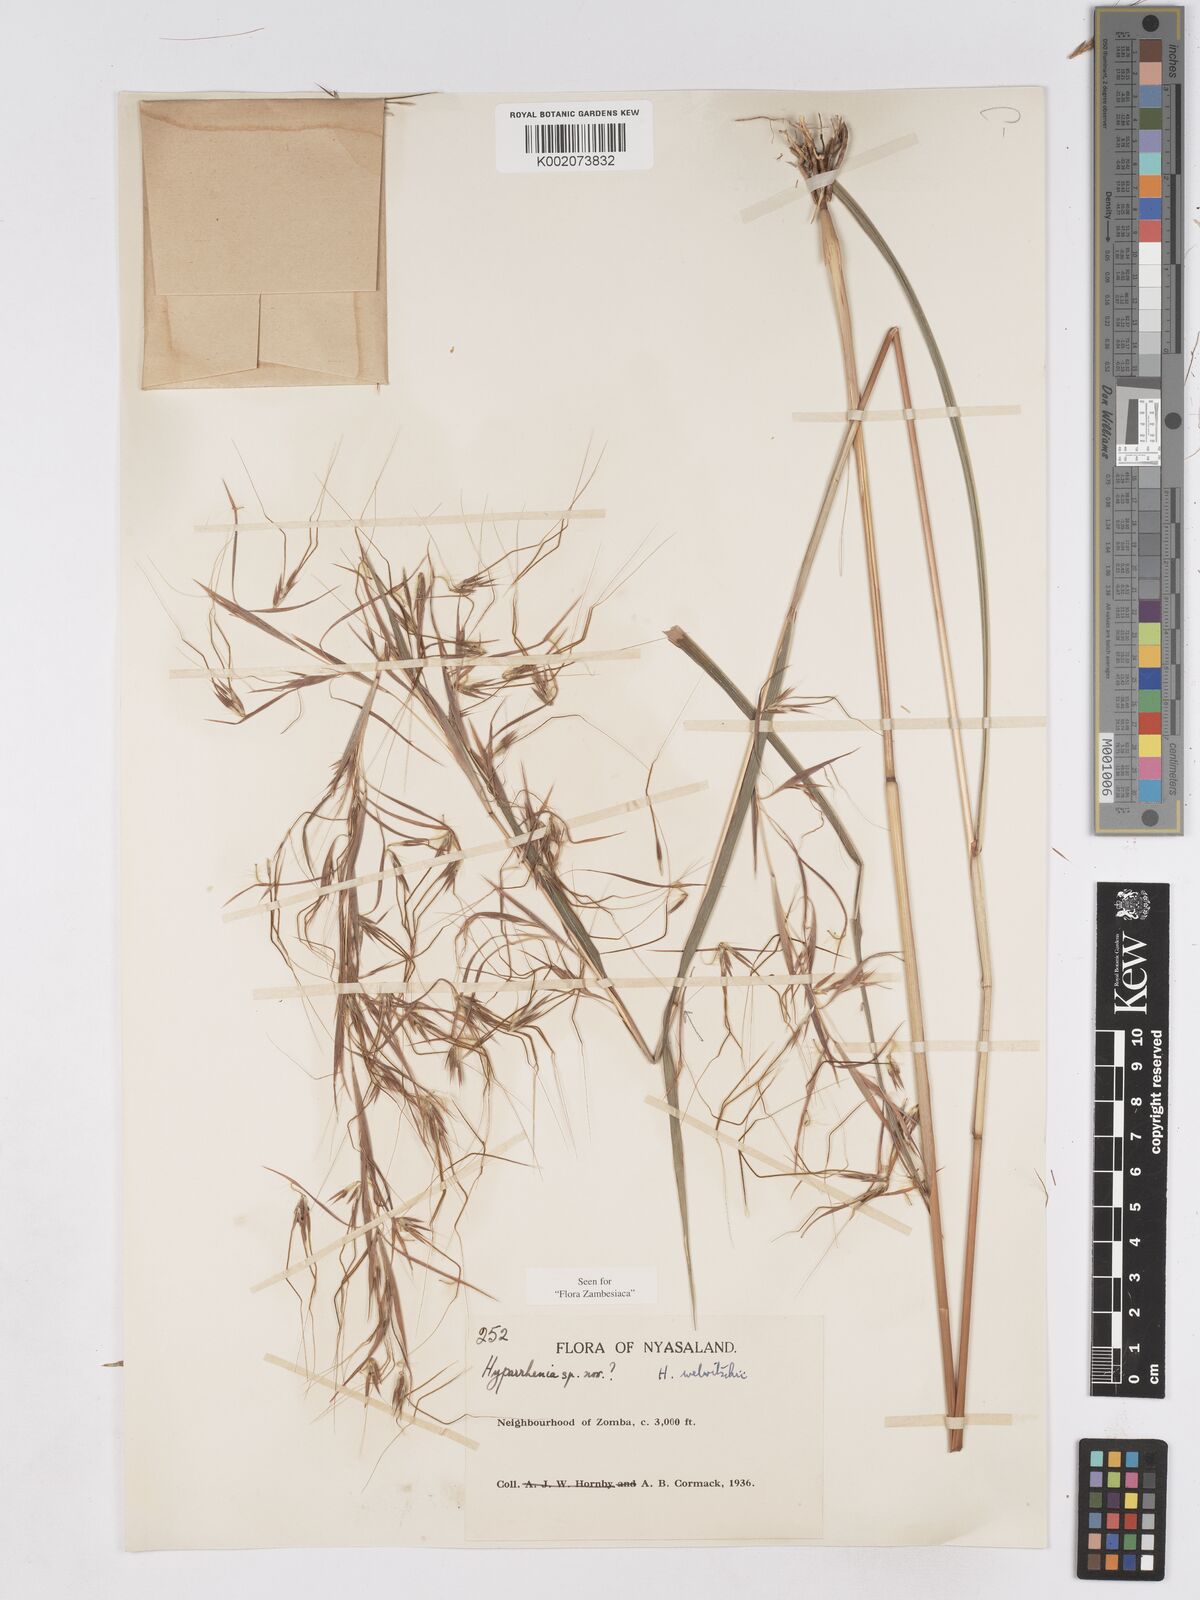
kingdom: Plantae
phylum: Tracheophyta
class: Liliopsida
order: Poales
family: Poaceae
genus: Hyparrhenia
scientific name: Hyparrhenia welwitschii
